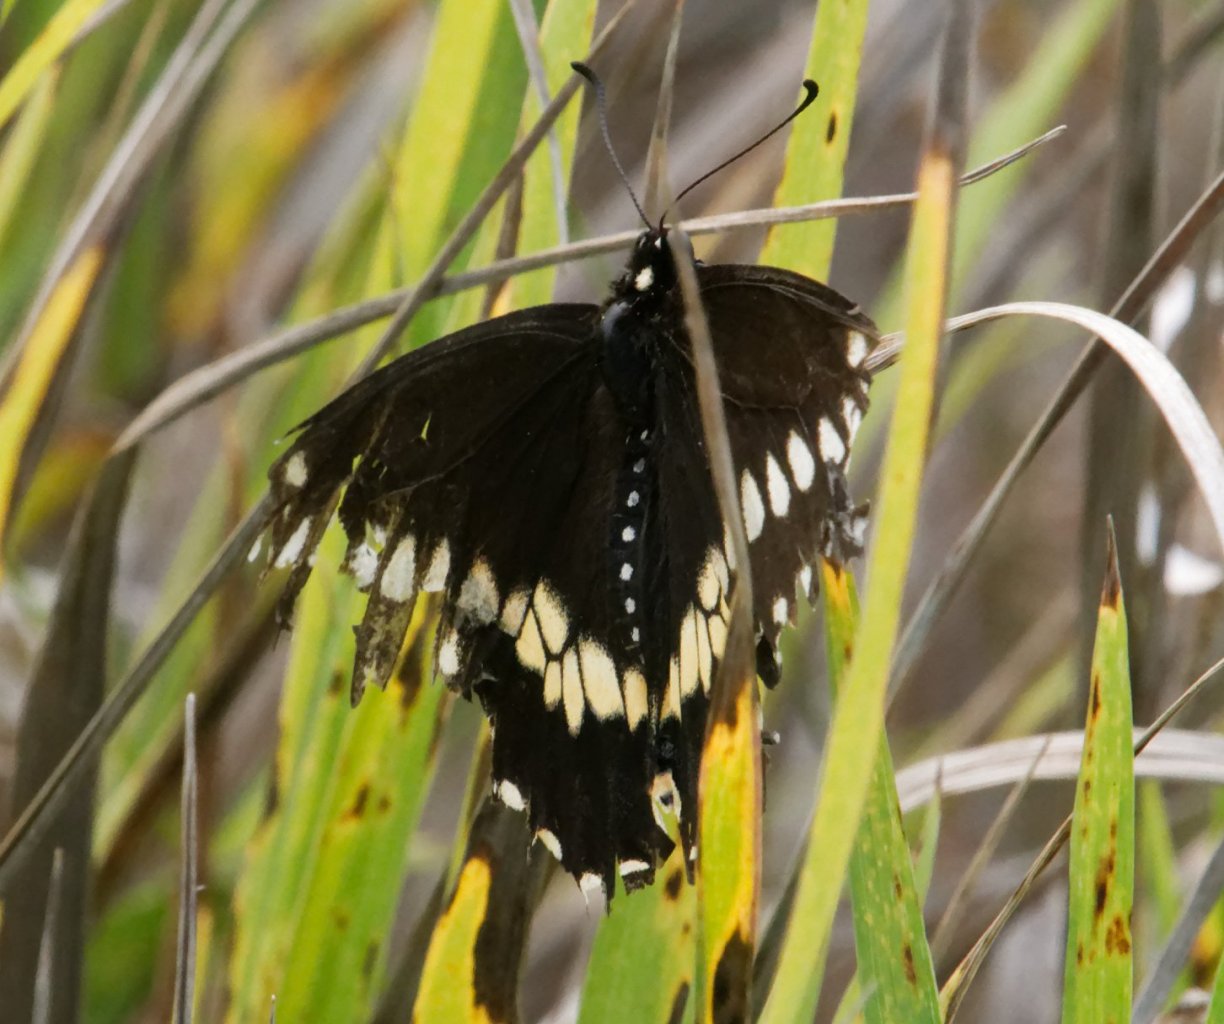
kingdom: Animalia
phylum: Arthropoda
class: Insecta
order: Lepidoptera
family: Papilionidae
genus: Papilio
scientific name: Papilio polyxenes
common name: Black Swallowtail
